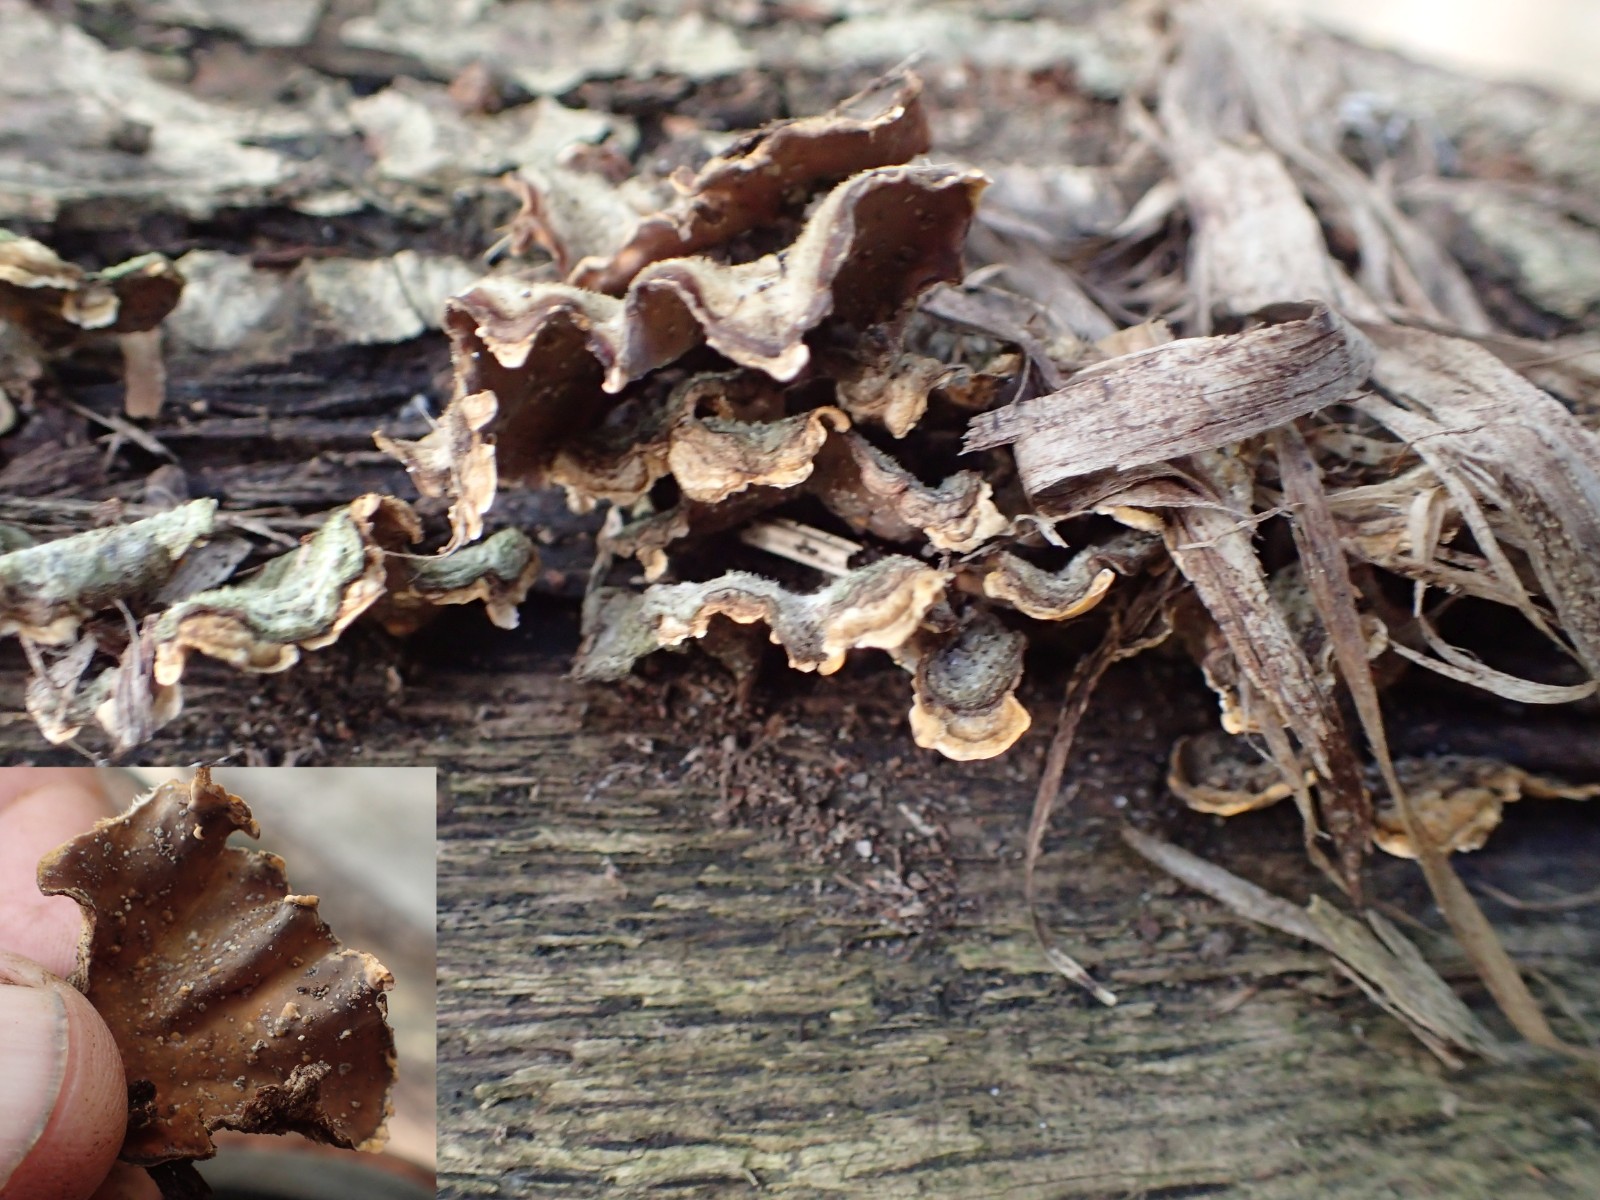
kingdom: Fungi
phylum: Basidiomycota
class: Agaricomycetes
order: Hymenochaetales
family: Hymenochaetaceae
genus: Hymenochaete
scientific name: Hymenochaete rubiginosa
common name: stiv ruslædersvamp
